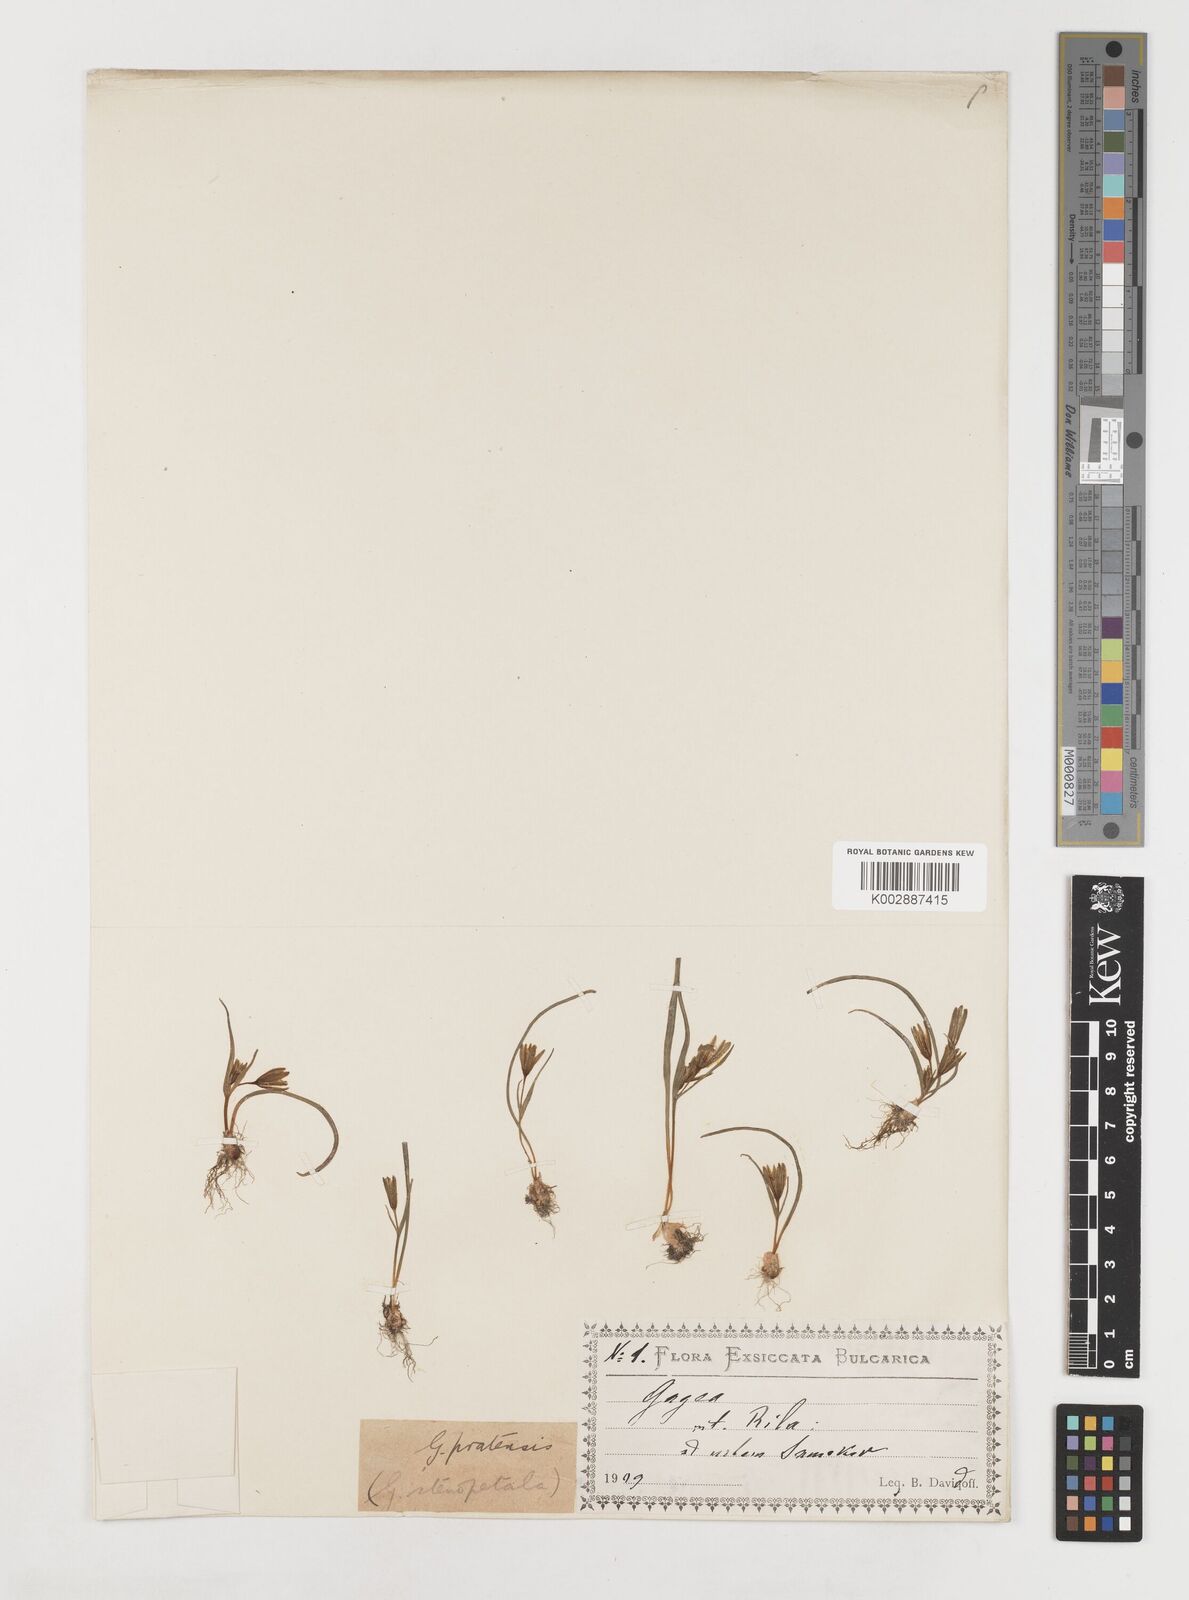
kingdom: Plantae
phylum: Tracheophyta
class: Liliopsida
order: Liliales
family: Liliaceae
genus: Gagea
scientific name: Gagea pratensis
